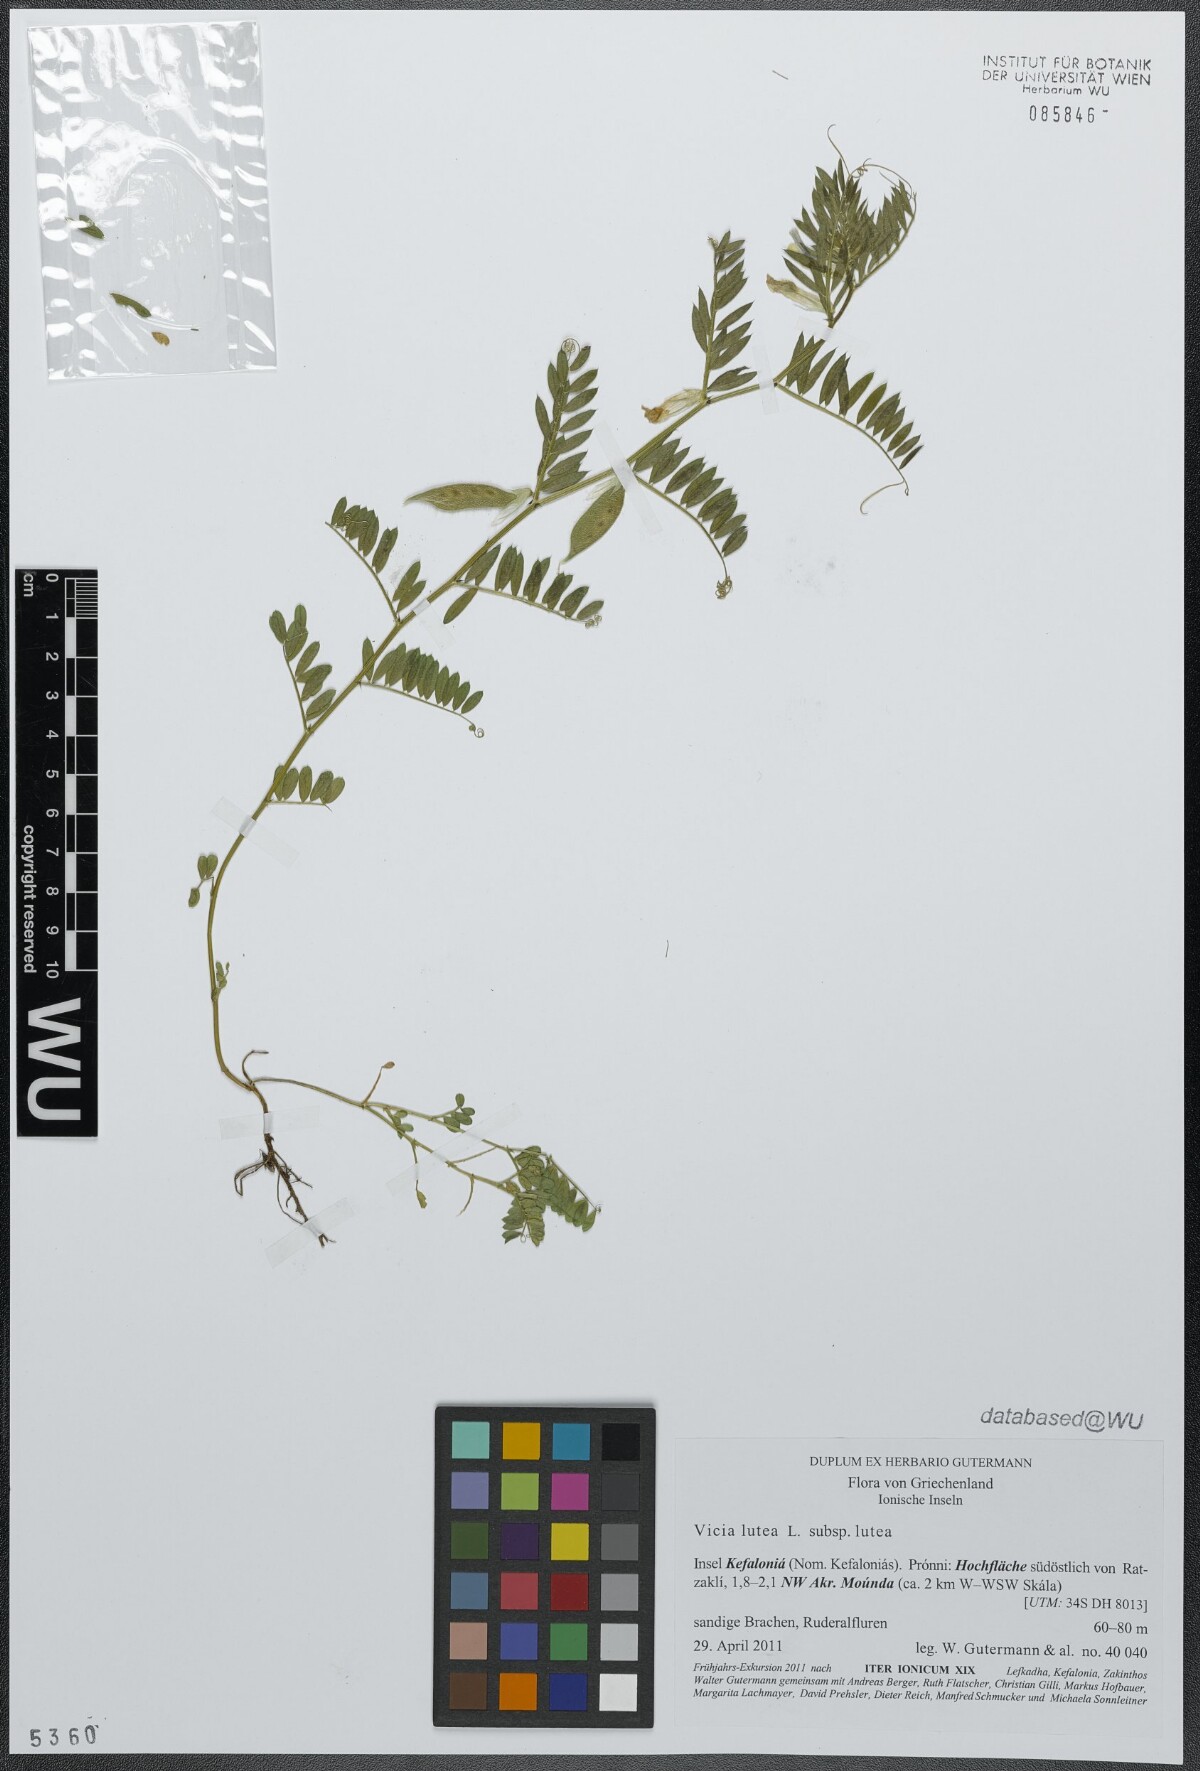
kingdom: Plantae
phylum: Tracheophyta
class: Magnoliopsida
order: Fabales
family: Fabaceae
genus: Vicia
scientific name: Vicia lutea
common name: Smooth yellow vetch
